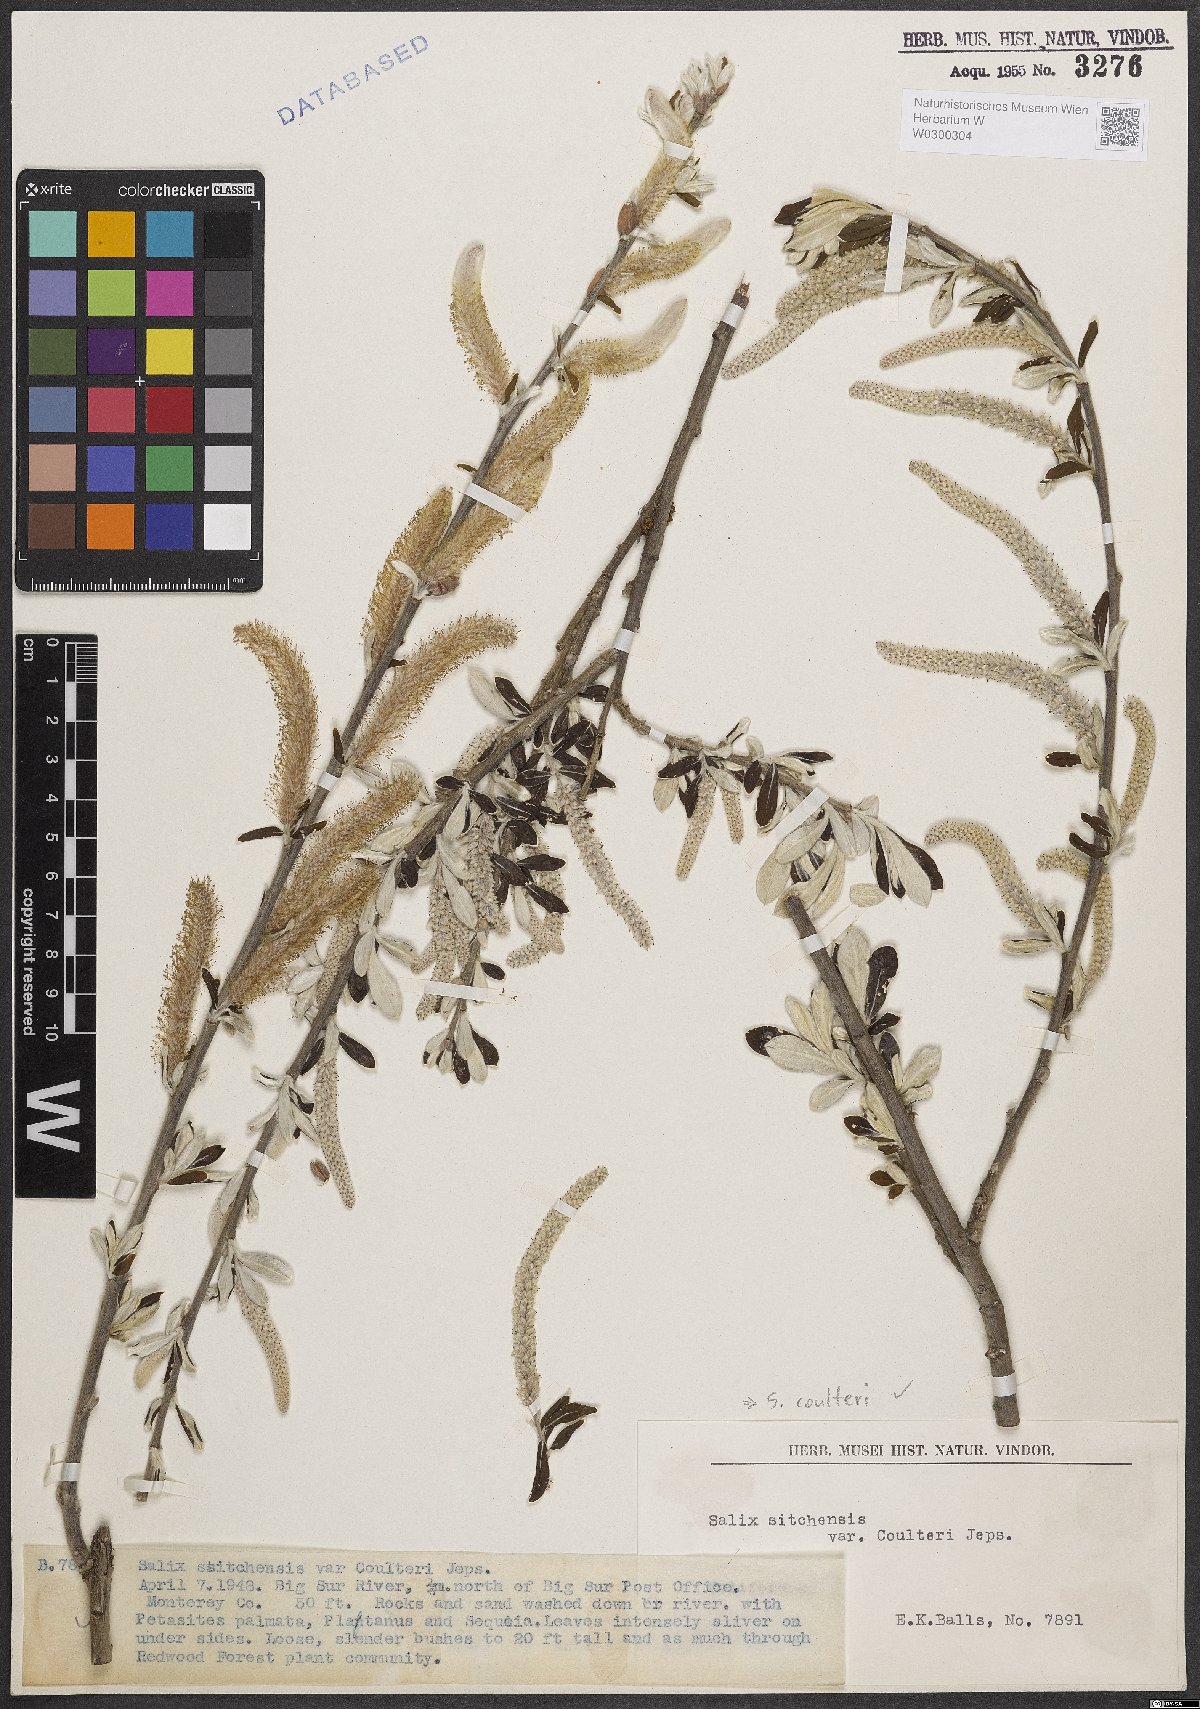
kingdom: Plantae
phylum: Tracheophyta
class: Magnoliopsida
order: Malpighiales
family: Salicaceae
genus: Salix
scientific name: Salix sitchensis
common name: Sitka willow
